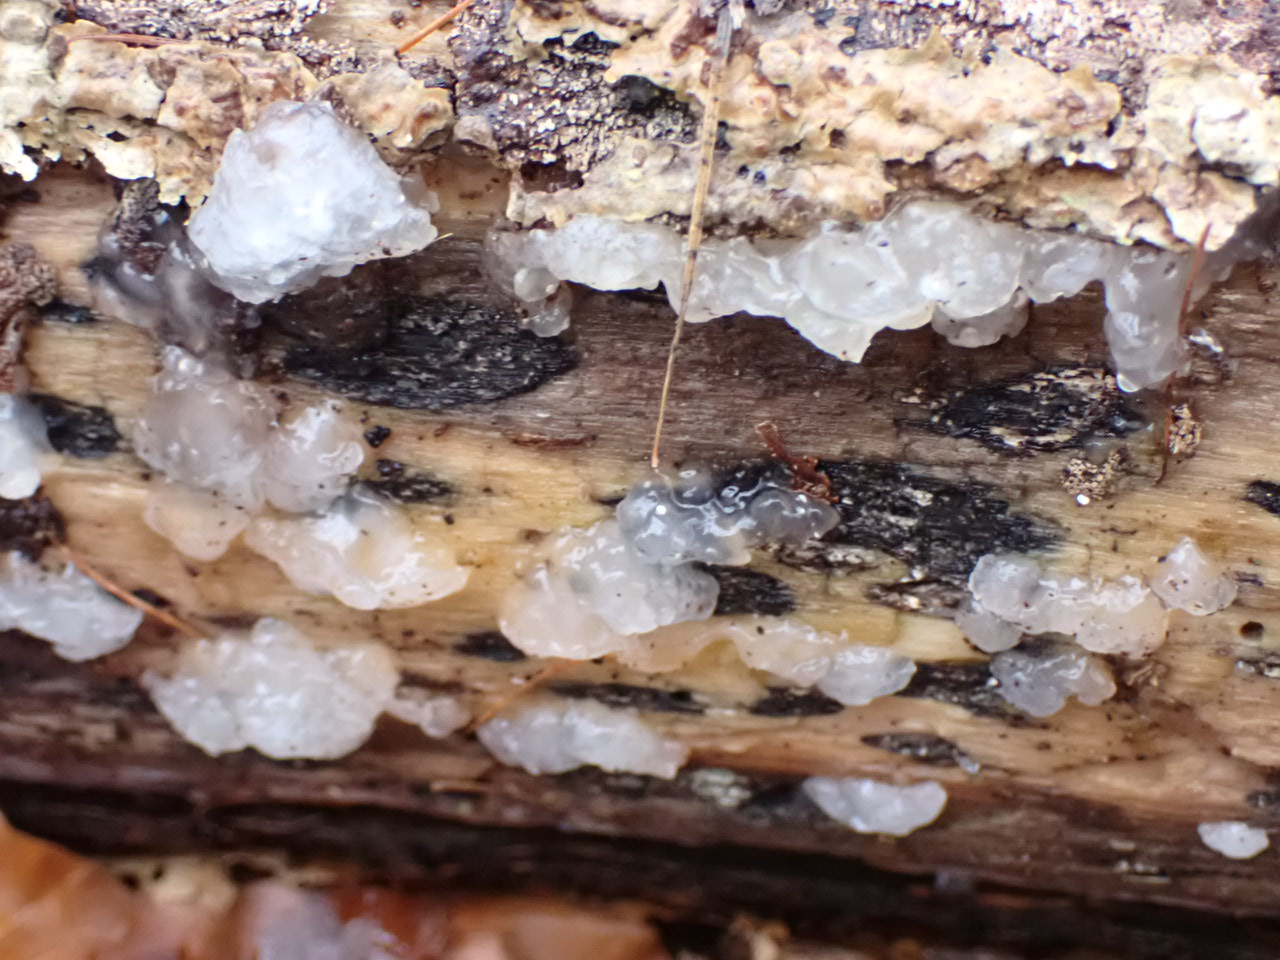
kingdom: Fungi
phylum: Basidiomycota
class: Agaricomycetes
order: Auriculariales
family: Hyaloriaceae
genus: Myxarium
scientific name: Myxarium nucleatum
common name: klar bævretop
